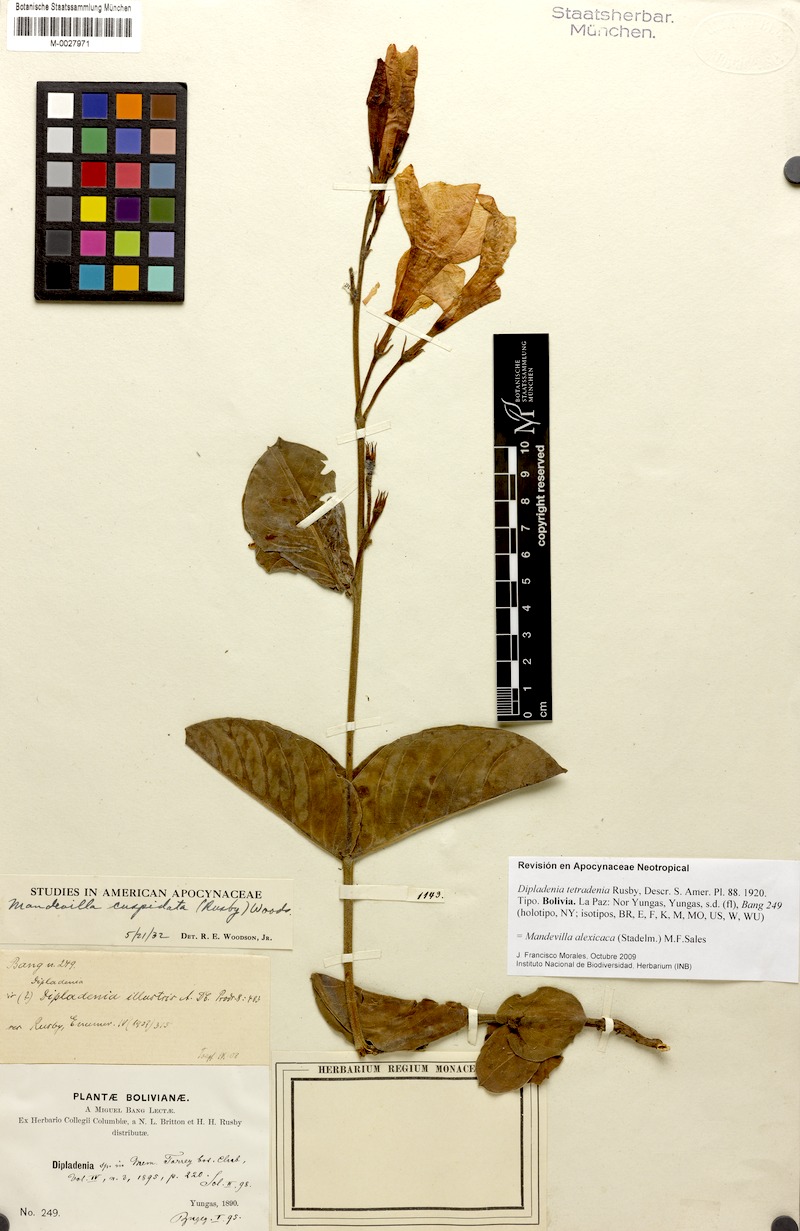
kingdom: Plantae
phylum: Tracheophyta
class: Magnoliopsida
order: Gentianales
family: Apocynaceae
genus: Mandevilla
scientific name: Mandevilla alexicaca
